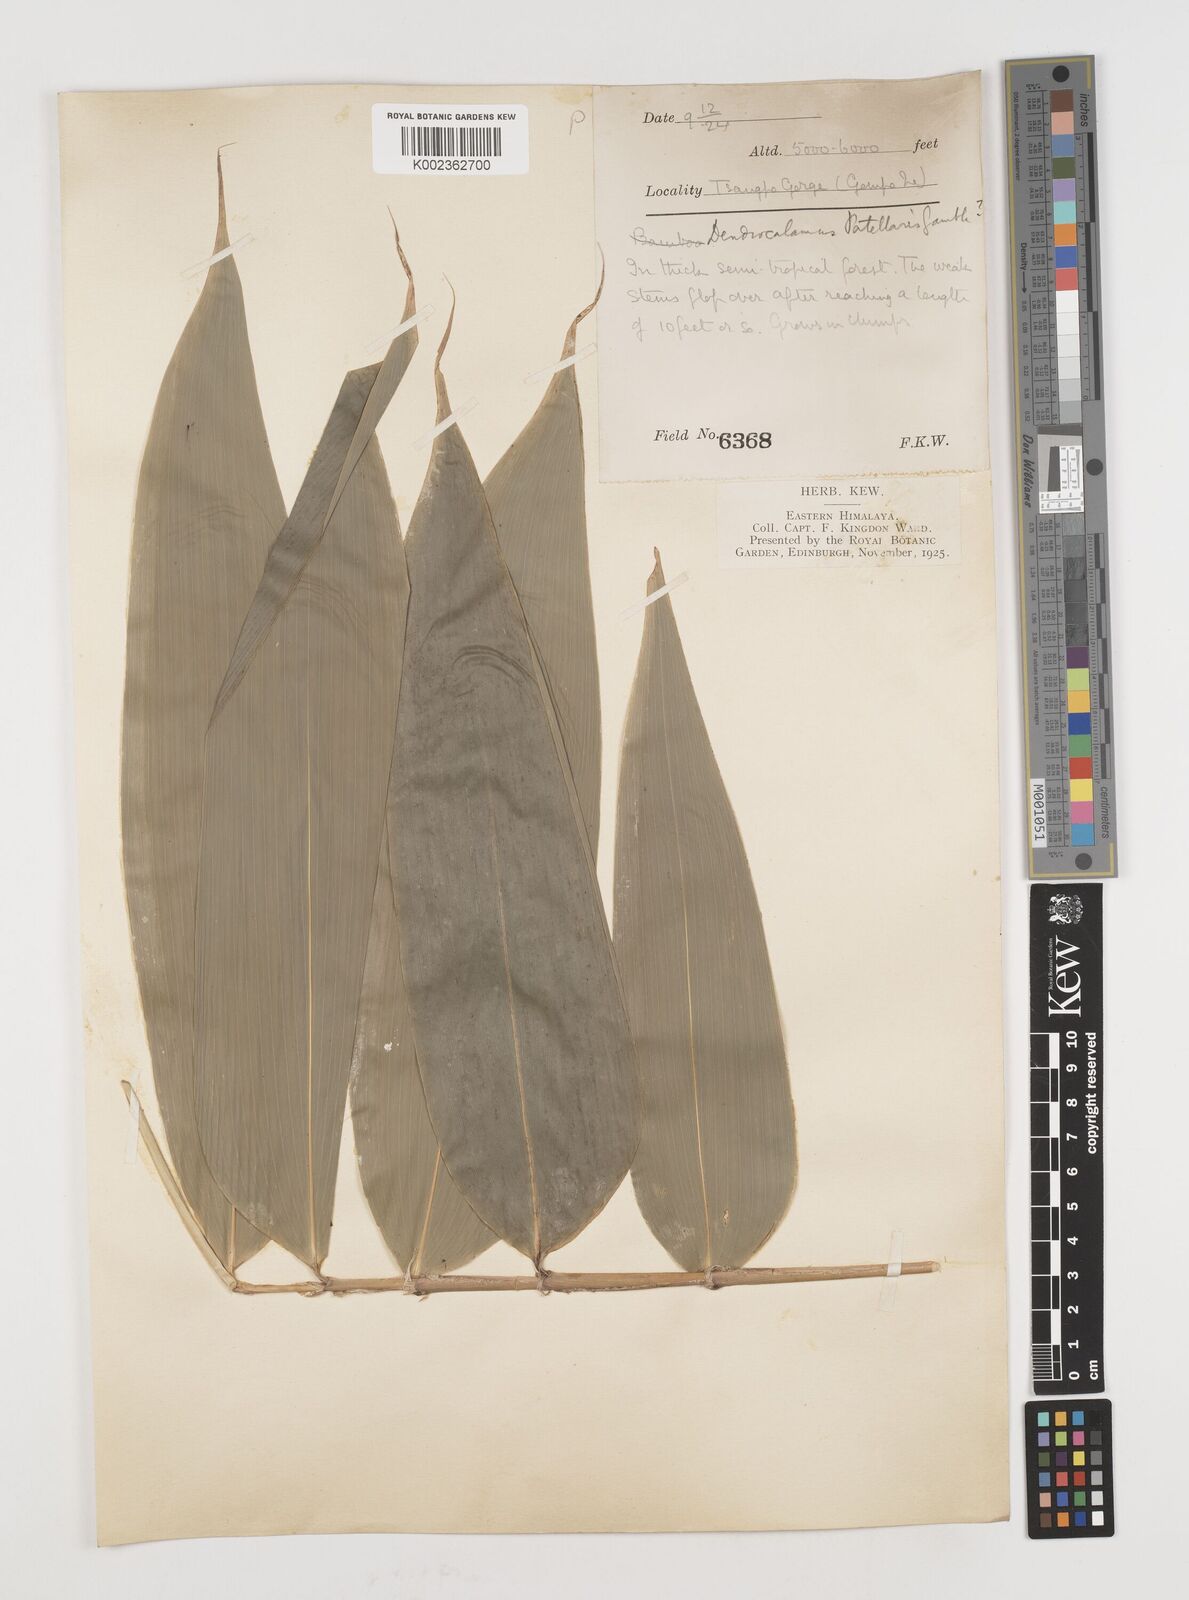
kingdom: Plantae
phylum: Tracheophyta
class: Liliopsida
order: Poales
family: Poaceae
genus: Ampelocalamus
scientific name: Ampelocalamus patellaris
